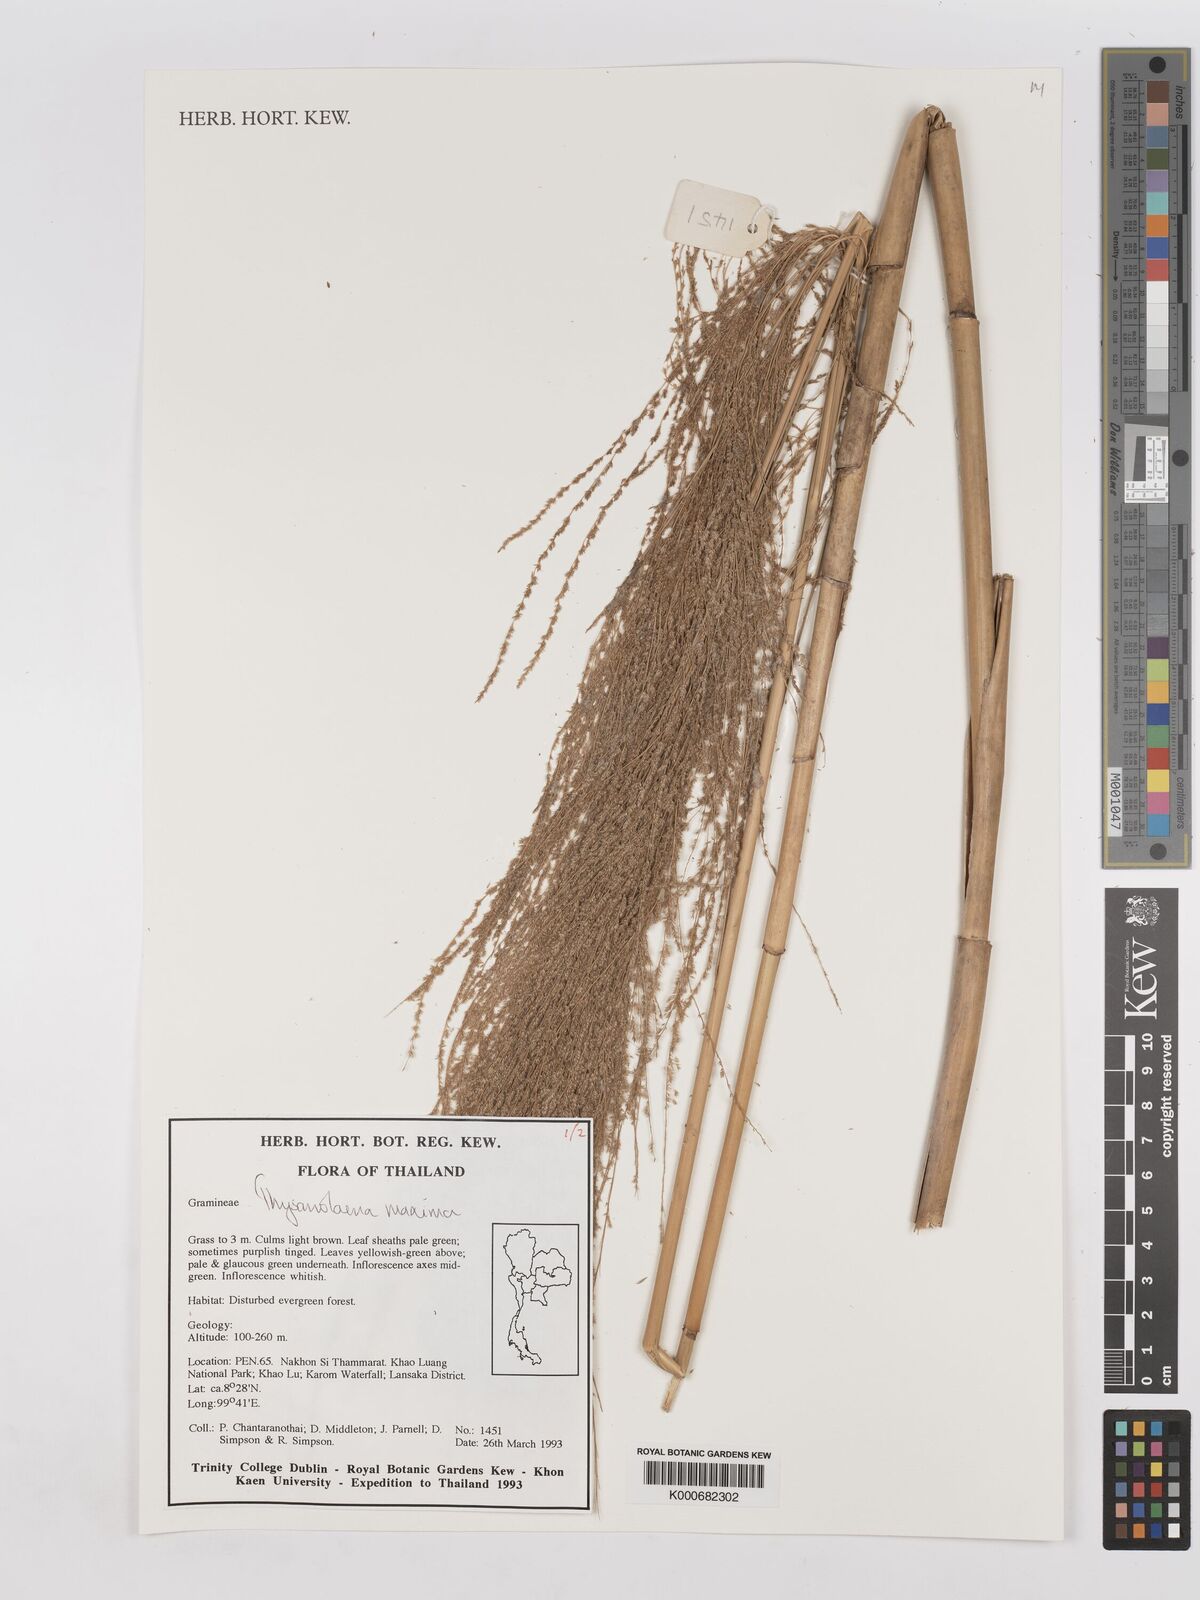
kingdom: Plantae
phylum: Tracheophyta
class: Liliopsida
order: Poales
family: Poaceae
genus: Thysanolaena
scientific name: Thysanolaena latifolia
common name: Tiger grass
